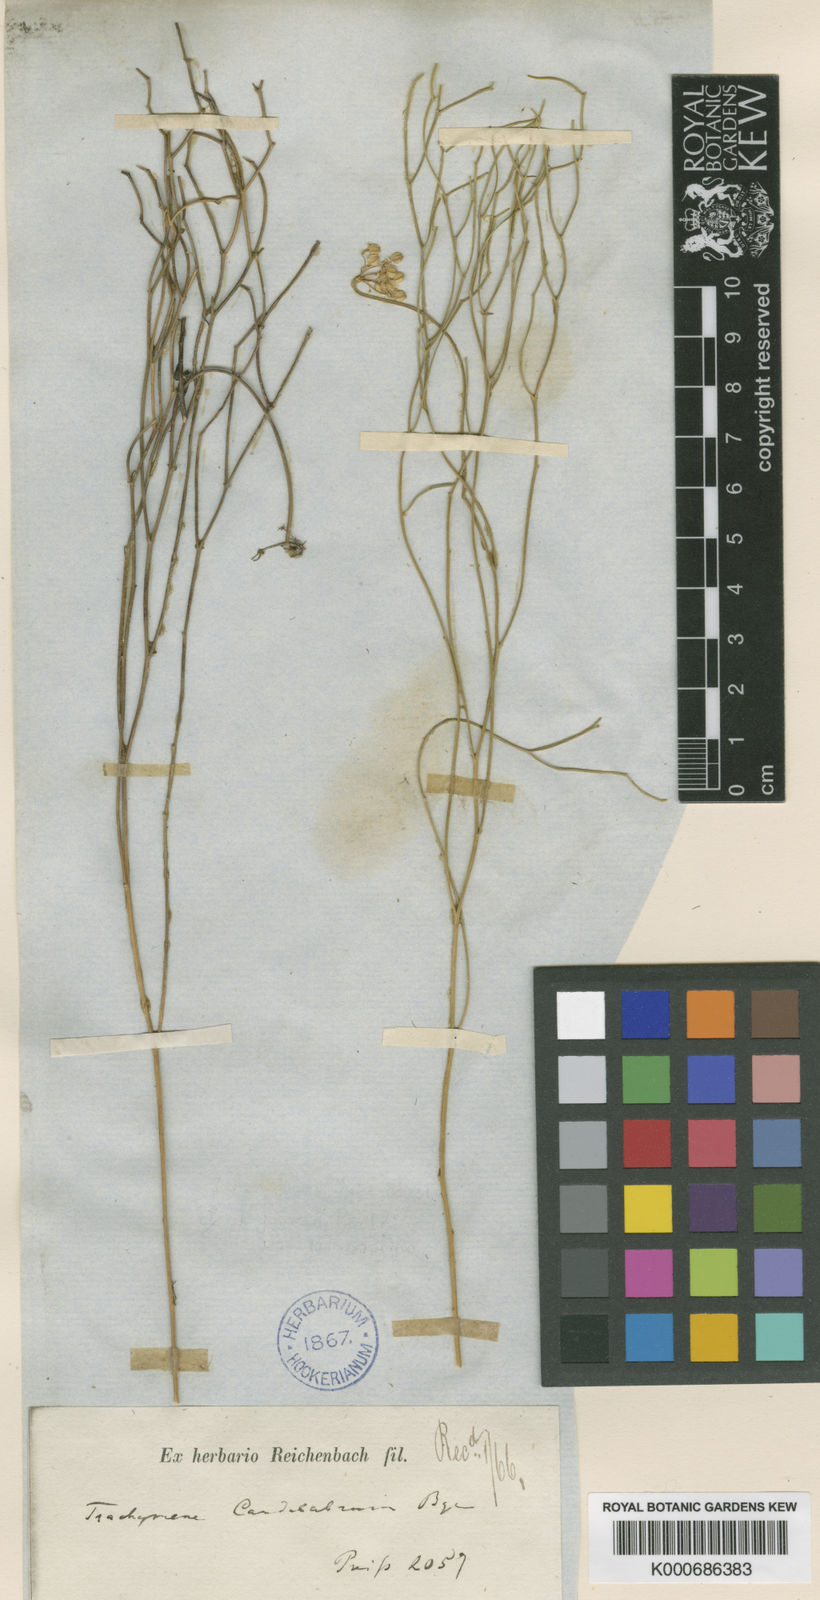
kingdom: Plantae
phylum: Tracheophyta
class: Magnoliopsida
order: Apiales
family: Apiaceae
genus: Platysace
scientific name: Platysace juncea
